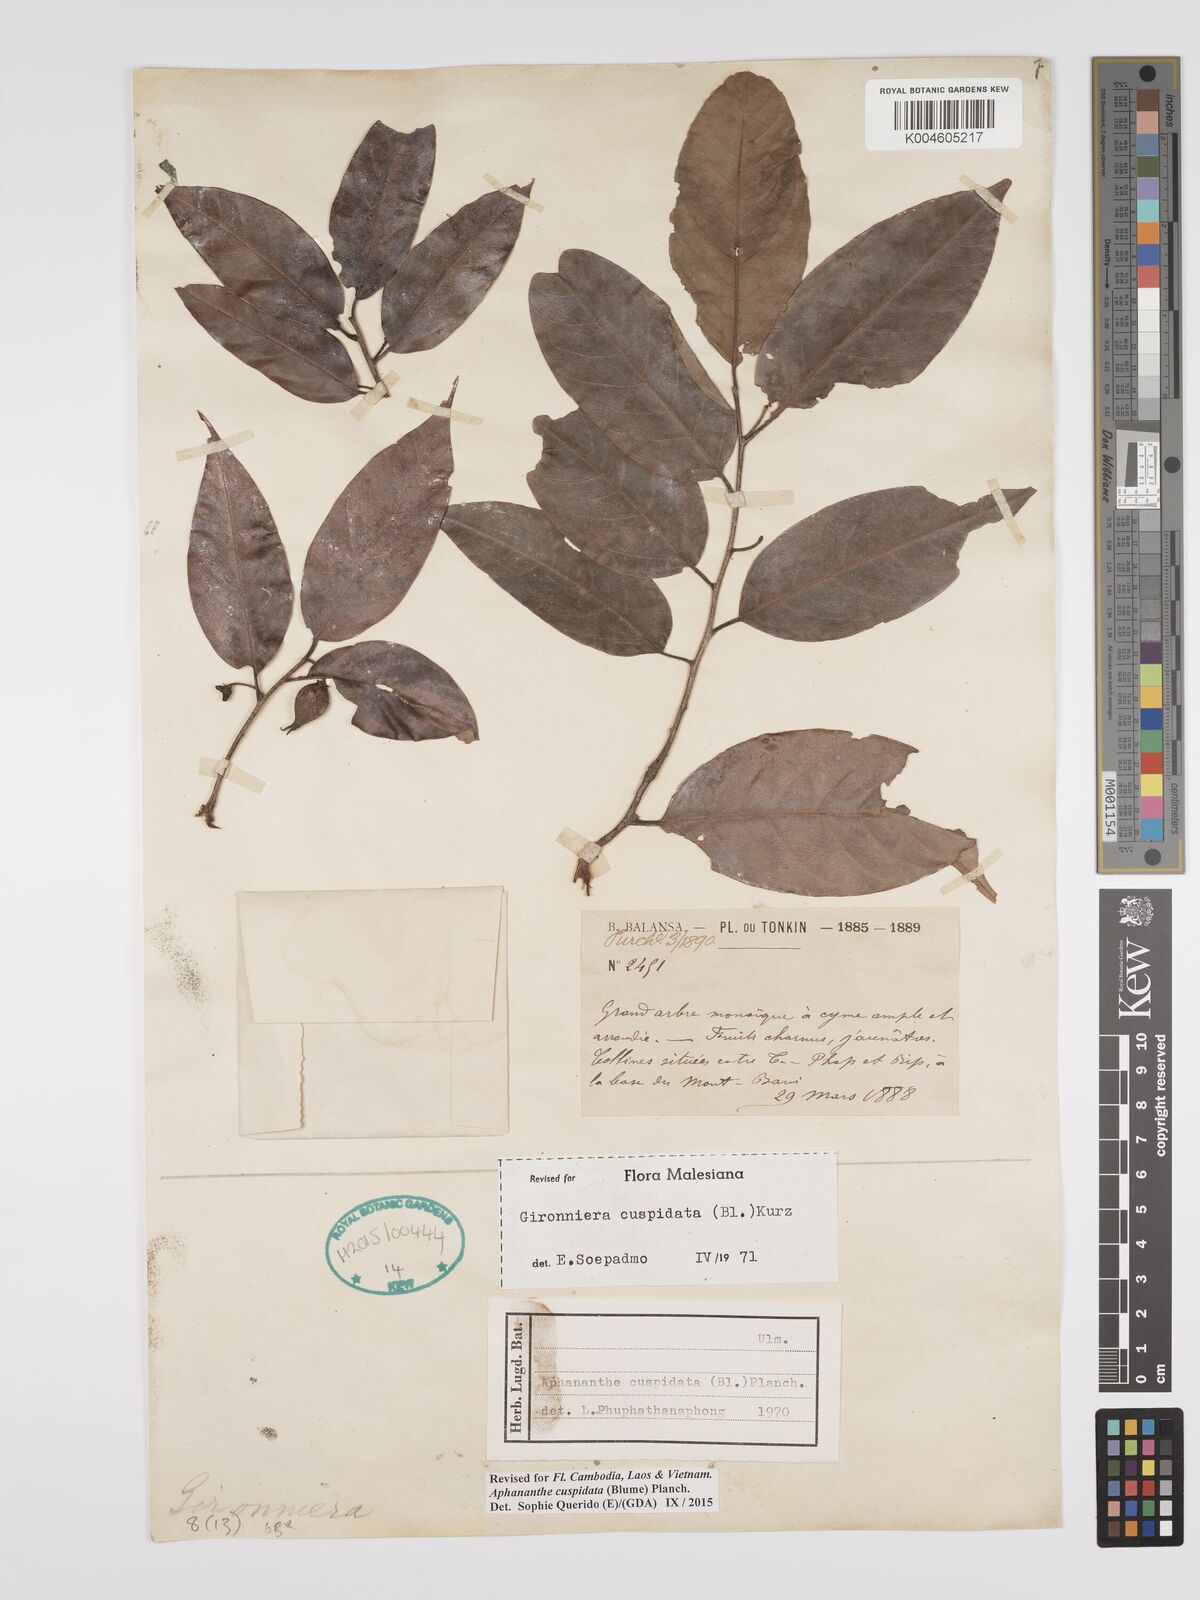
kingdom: Plantae
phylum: Tracheophyta
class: Magnoliopsida
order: Rosales
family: Cannabaceae
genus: Aphananthe
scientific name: Aphananthe cuspidata
